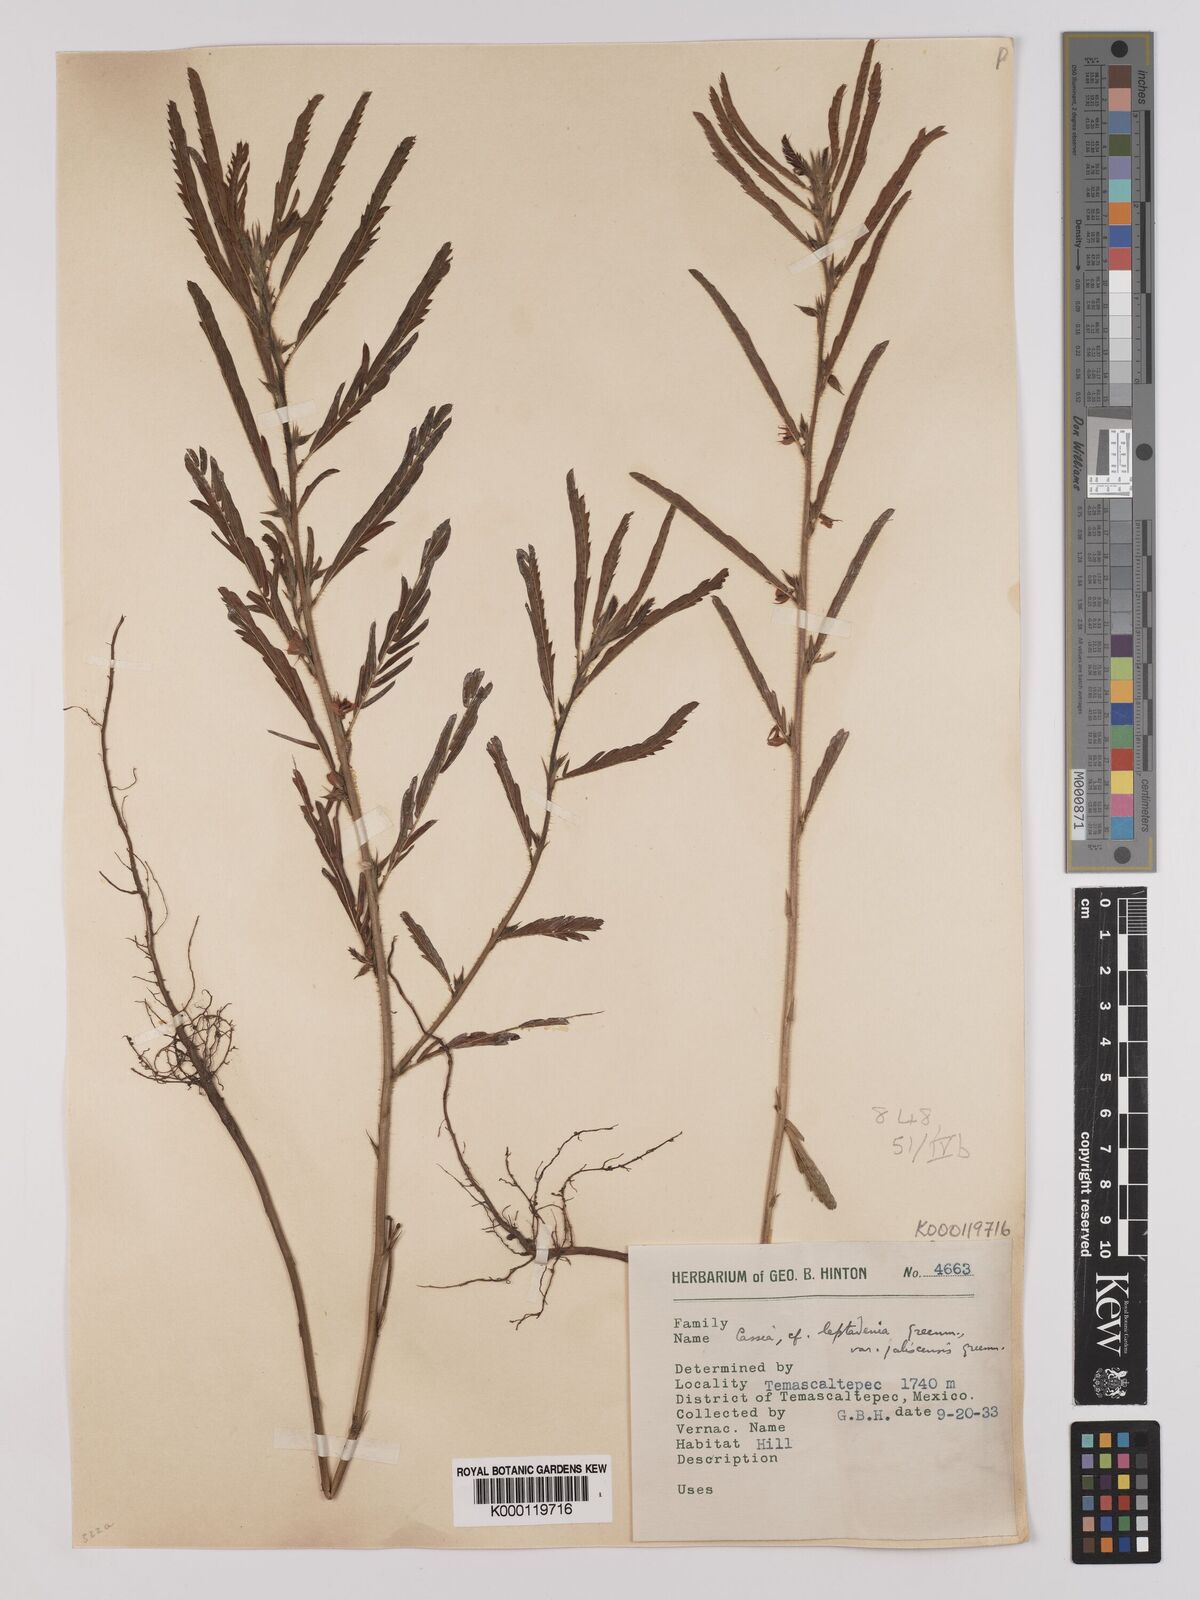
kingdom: Plantae
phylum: Tracheophyta
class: Magnoliopsida
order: Fabales
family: Fabaceae
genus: Chamaecrista
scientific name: Chamaecrista nictitans
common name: Sensitive cassia
